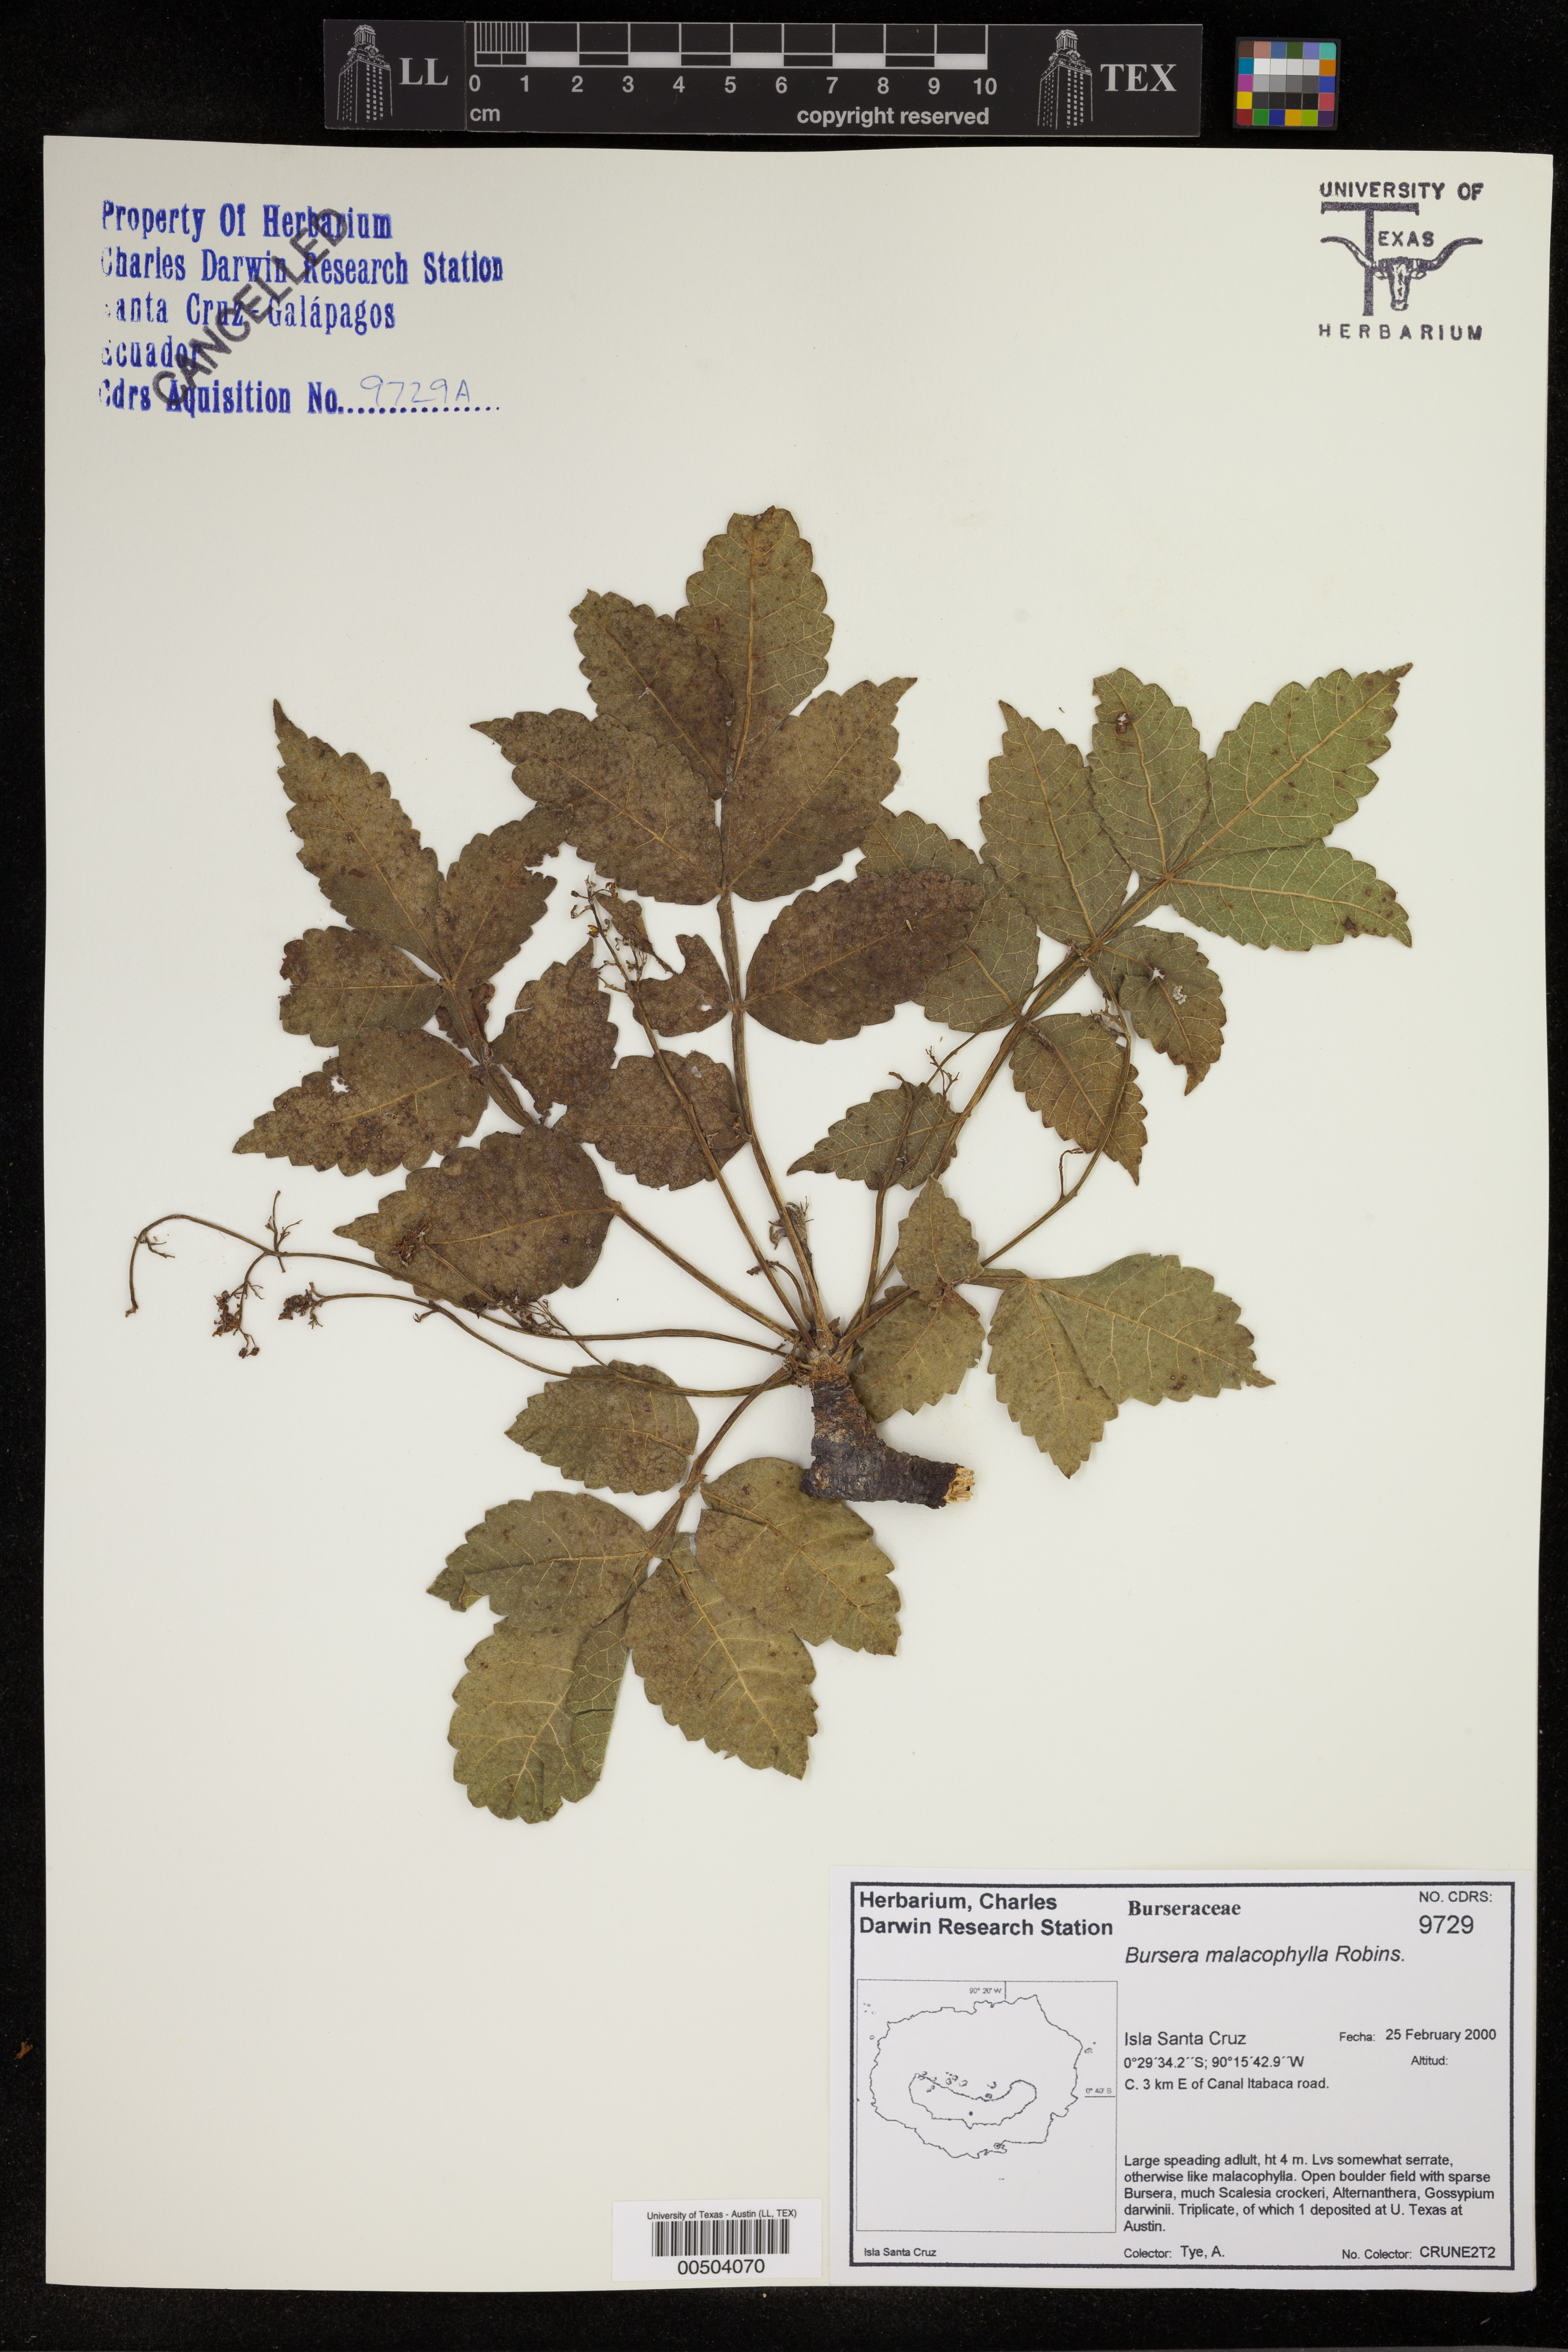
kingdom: Plantae
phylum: Tracheophyta
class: Magnoliopsida
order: Sapindales
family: Burseraceae
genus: Bursera
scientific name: Bursera graveolens
